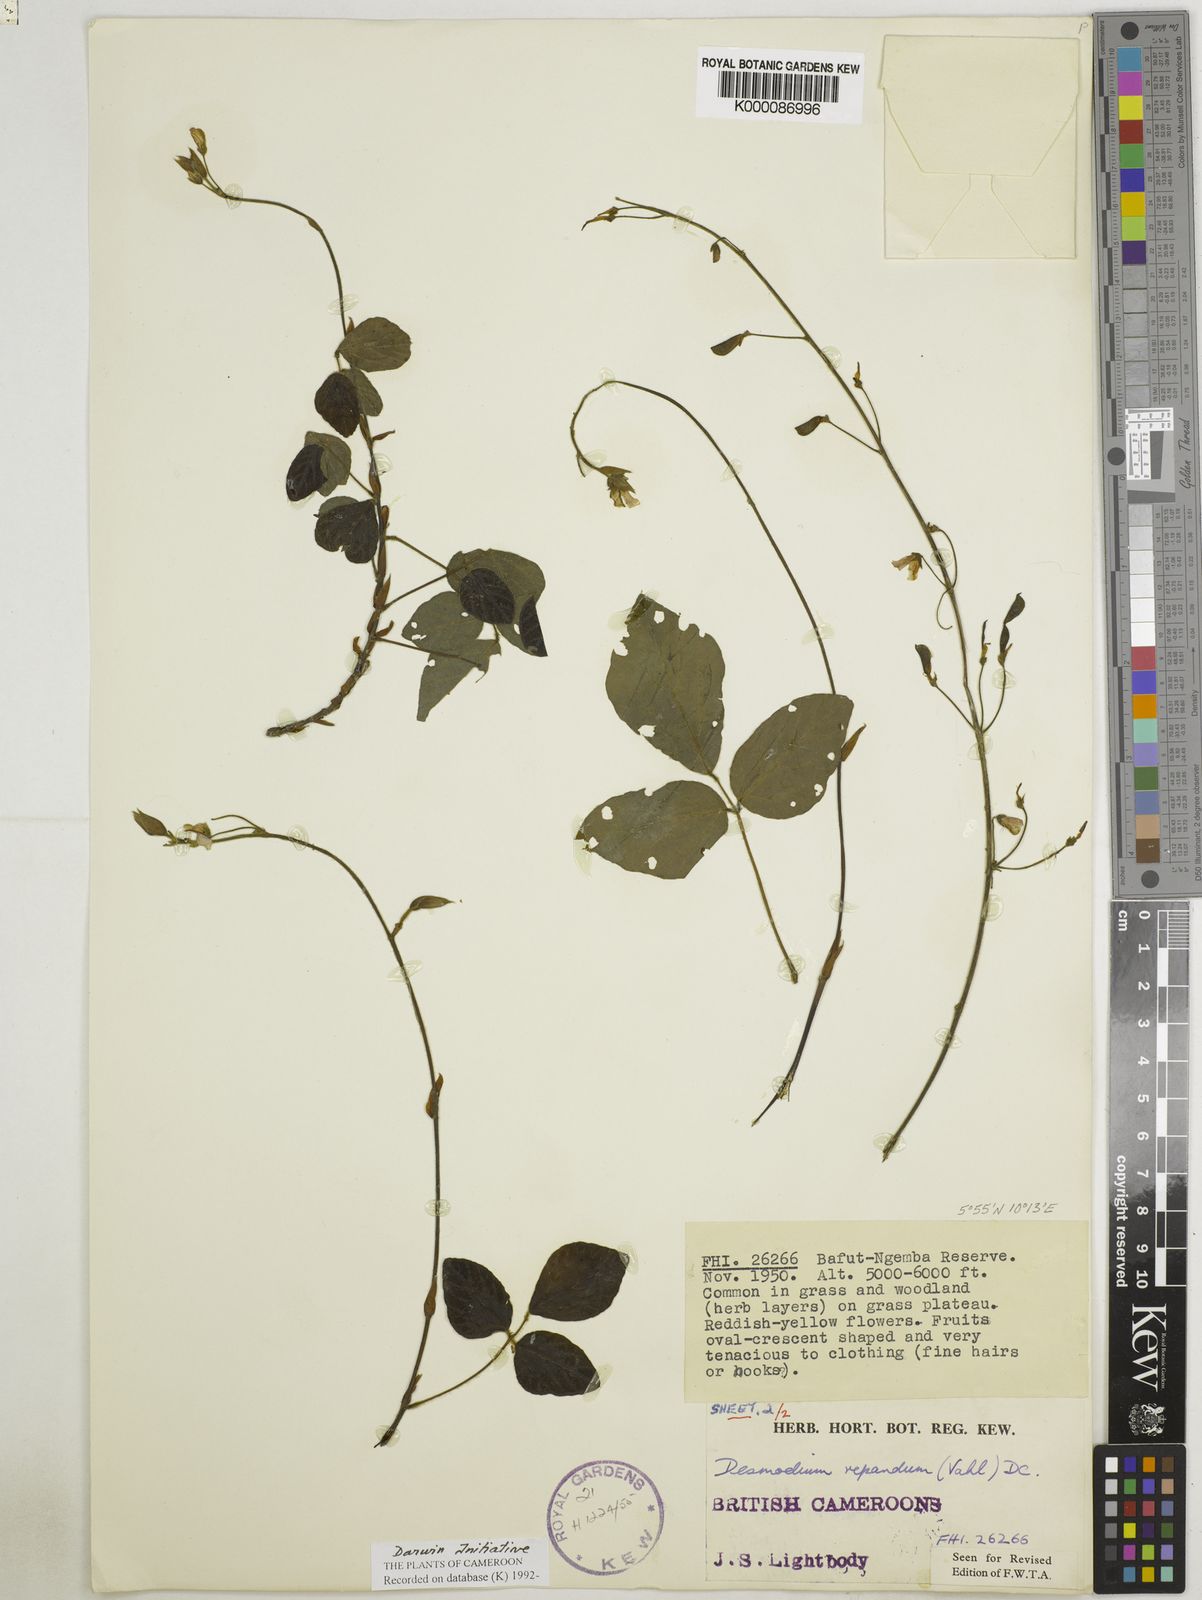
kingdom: Plantae
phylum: Tracheophyta
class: Magnoliopsida
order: Fabales
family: Fabaceae
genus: Desmodium
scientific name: Desmodium
